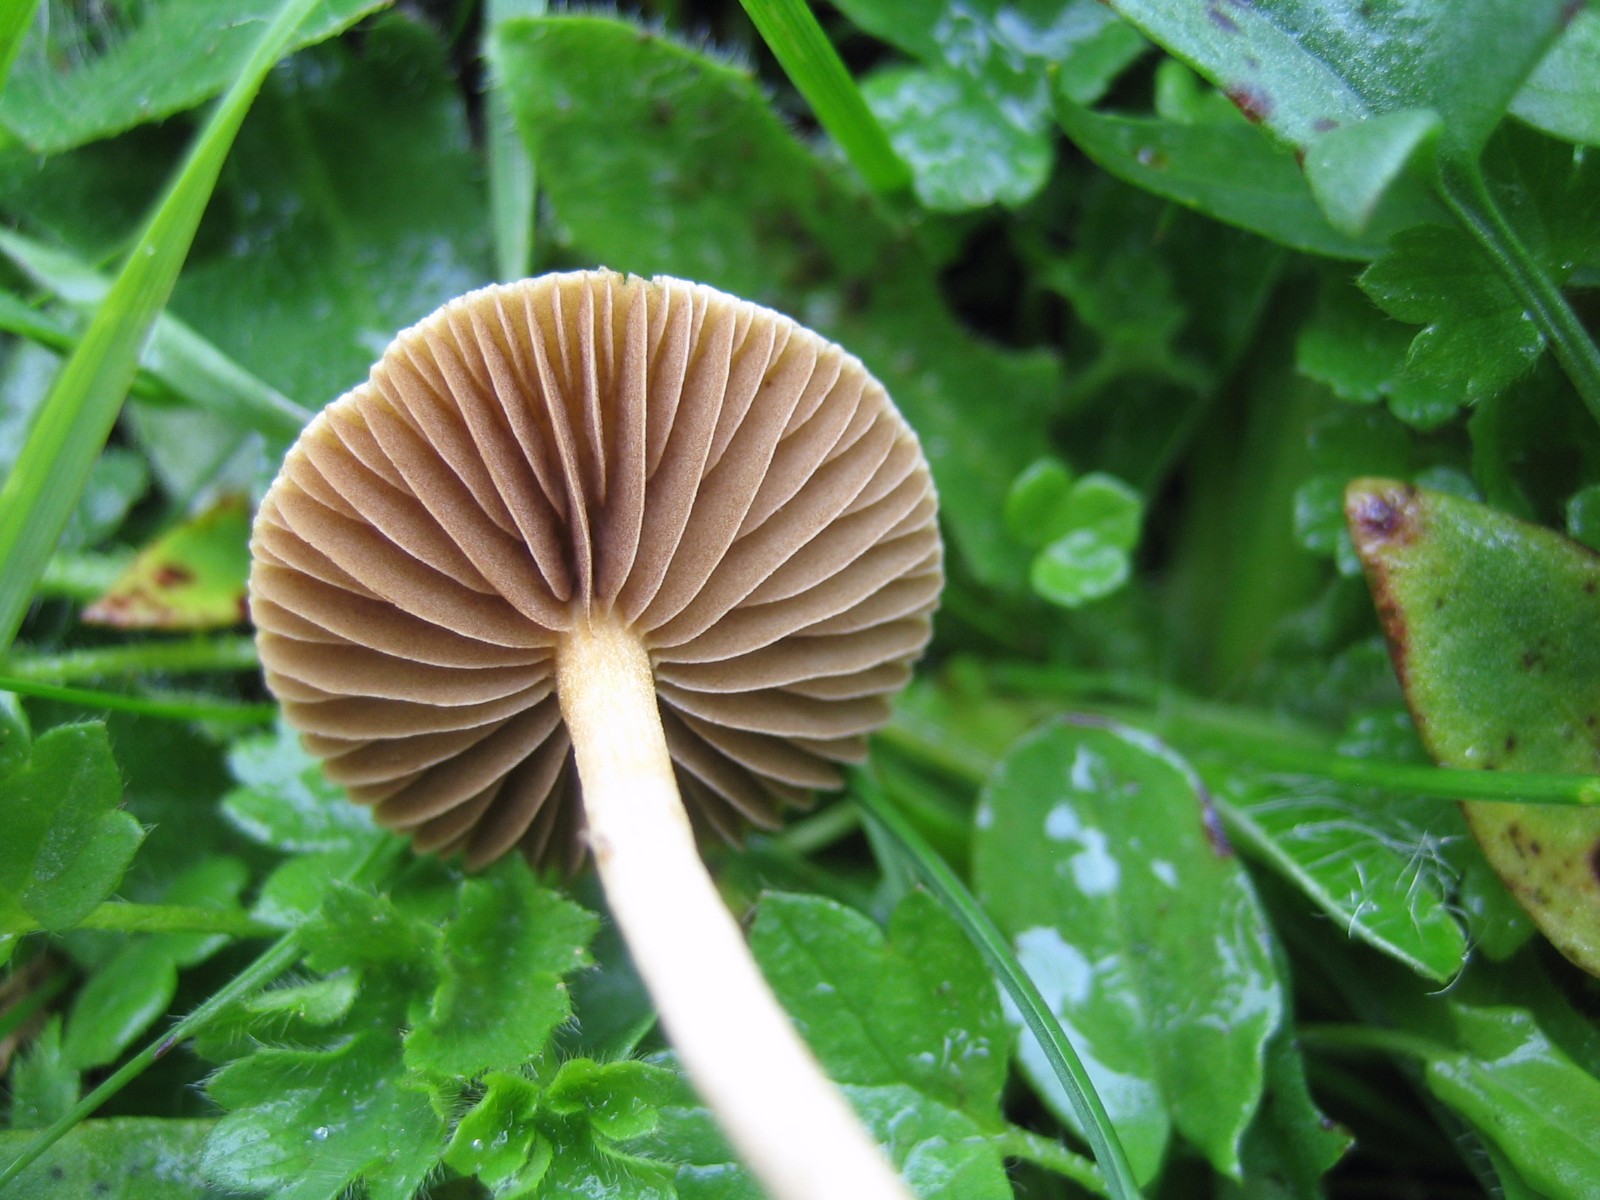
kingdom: Fungi
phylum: Basidiomycota
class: Agaricomycetes
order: Agaricales
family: Strophariaceae
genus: Agrocybe
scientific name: Agrocybe pediades
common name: almindelig agerhat
